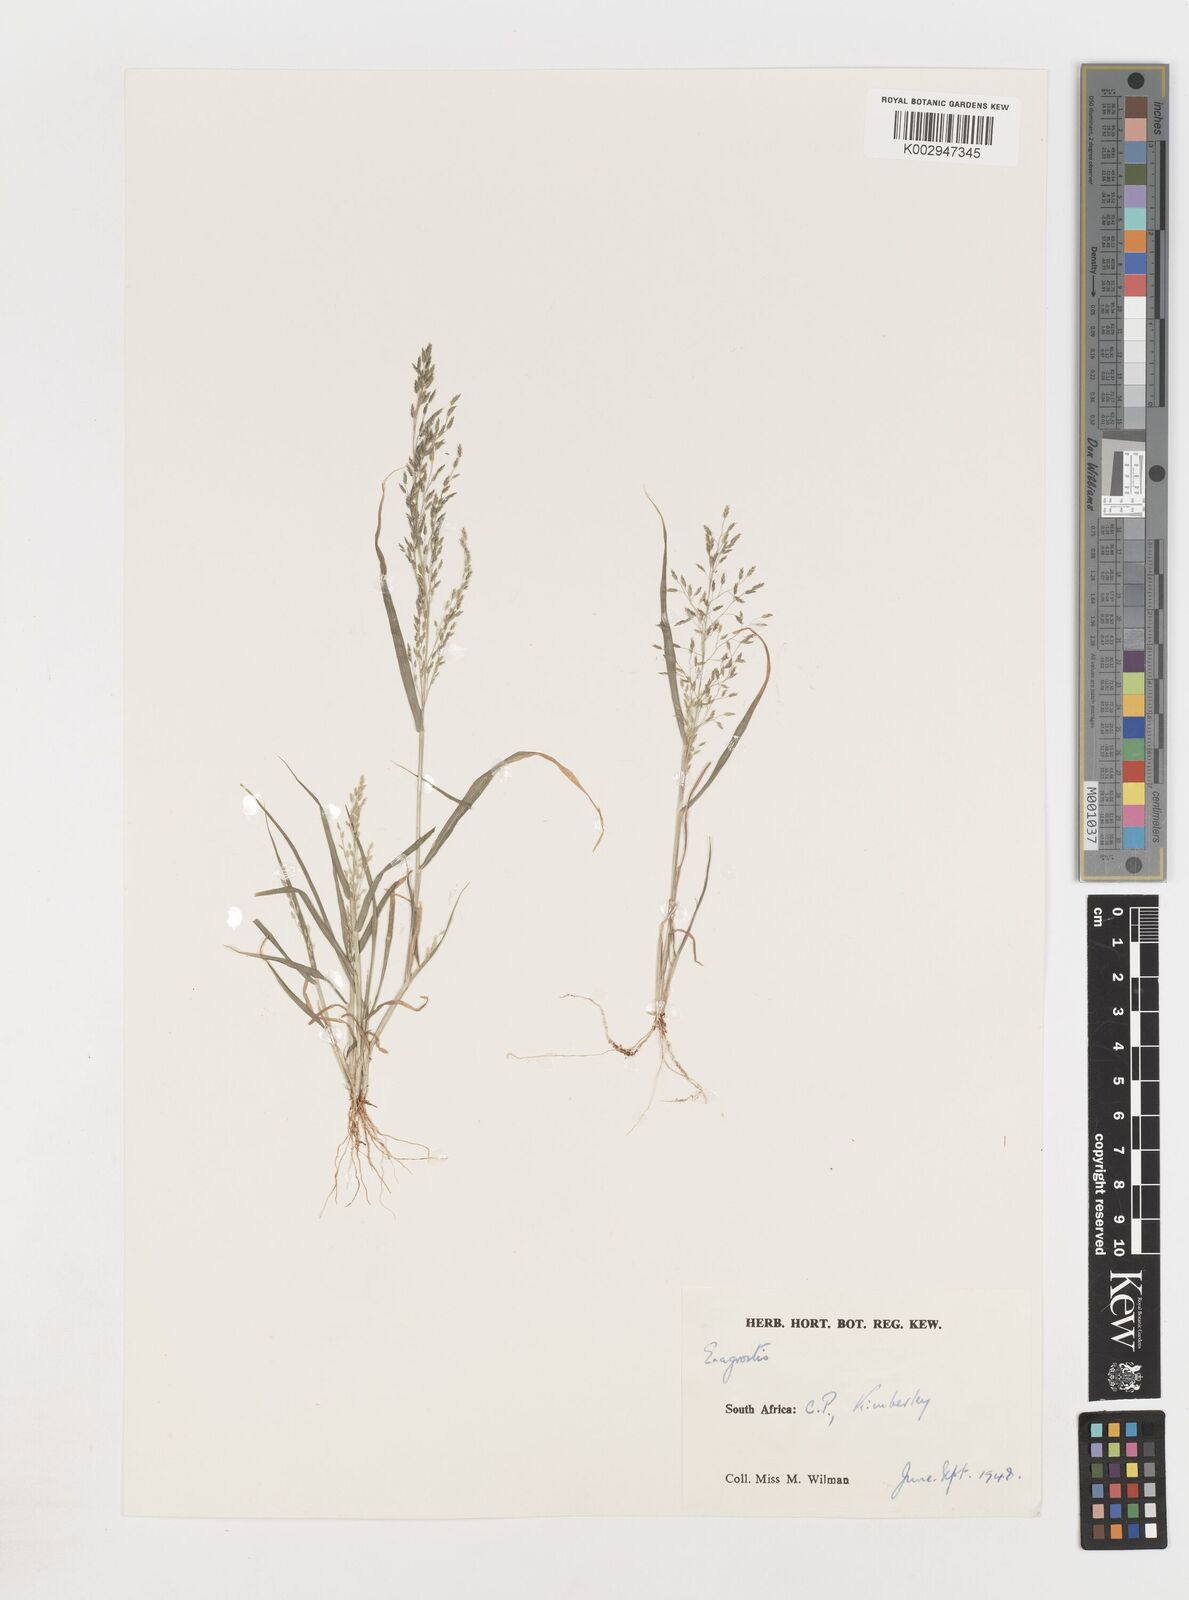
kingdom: Plantae
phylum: Tracheophyta
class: Liliopsida
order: Poales
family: Poaceae
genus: Eragrostis
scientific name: Eragrostis
